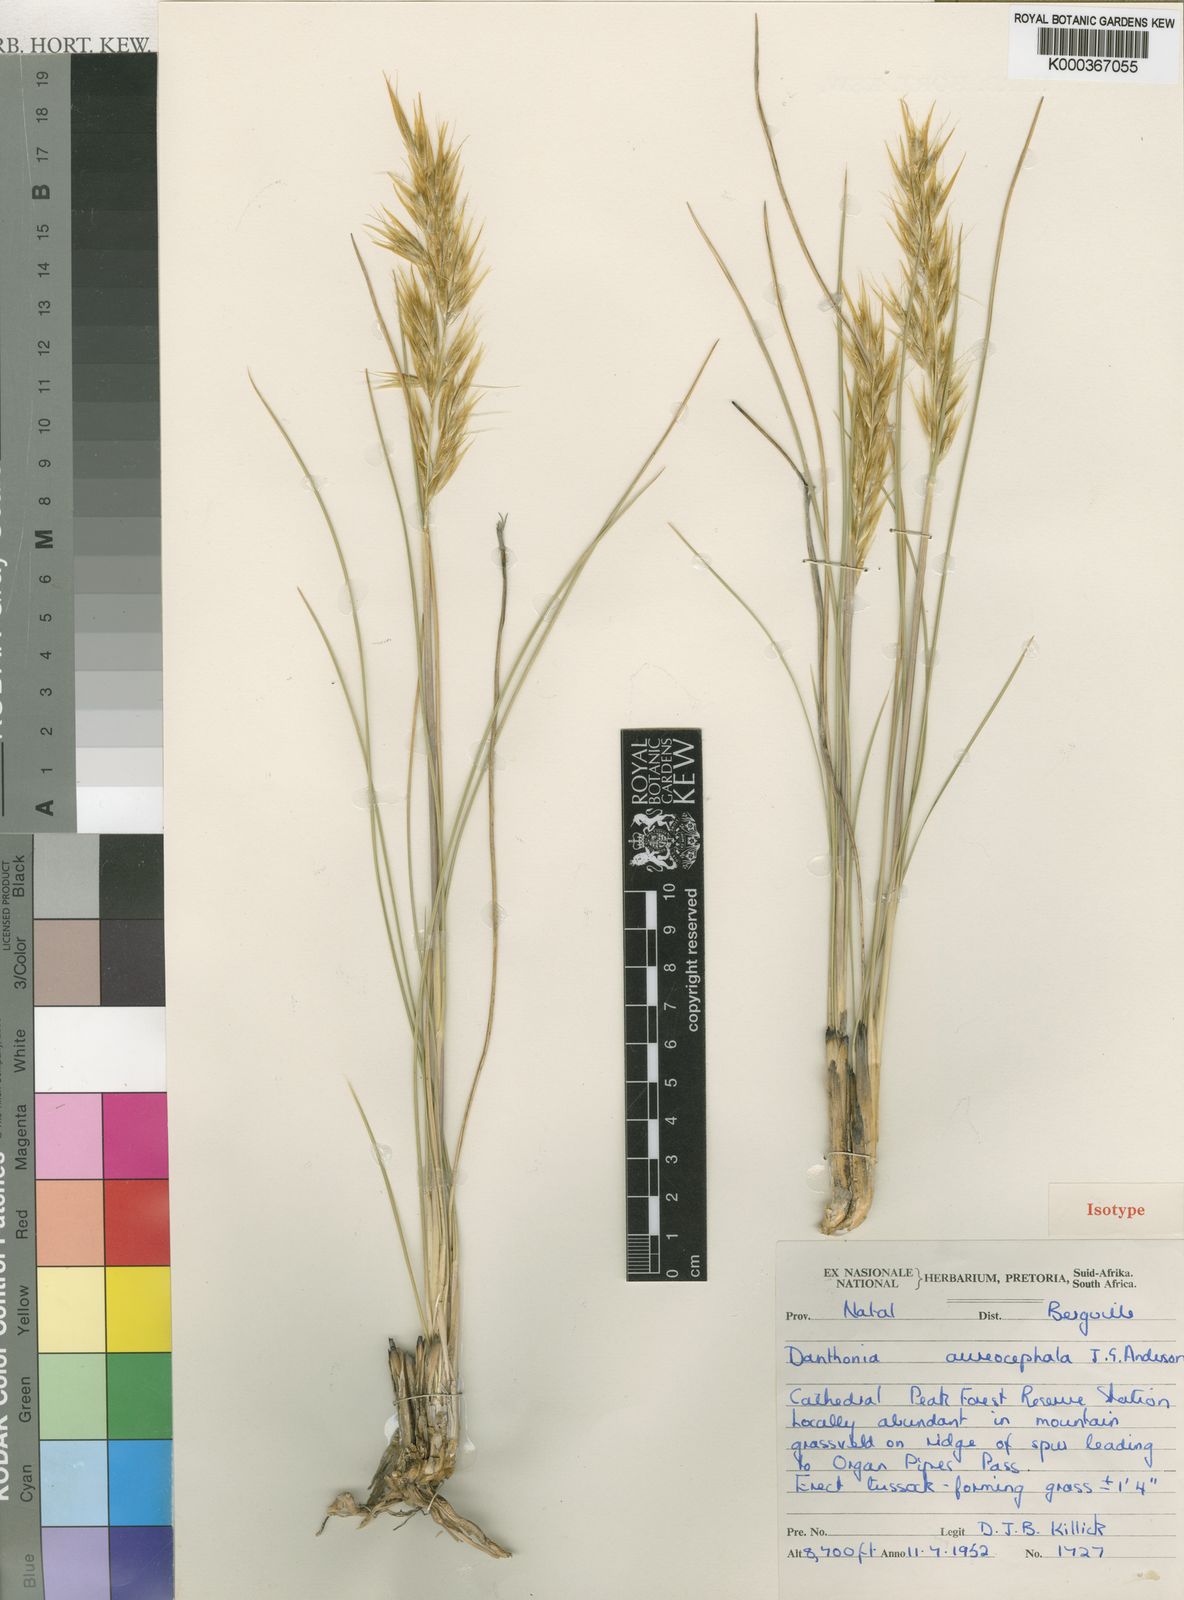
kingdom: Plantae
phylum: Tracheophyta
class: Liliopsida
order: Poales
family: Poaceae
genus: Rytidosperma
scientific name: Rytidosperma
